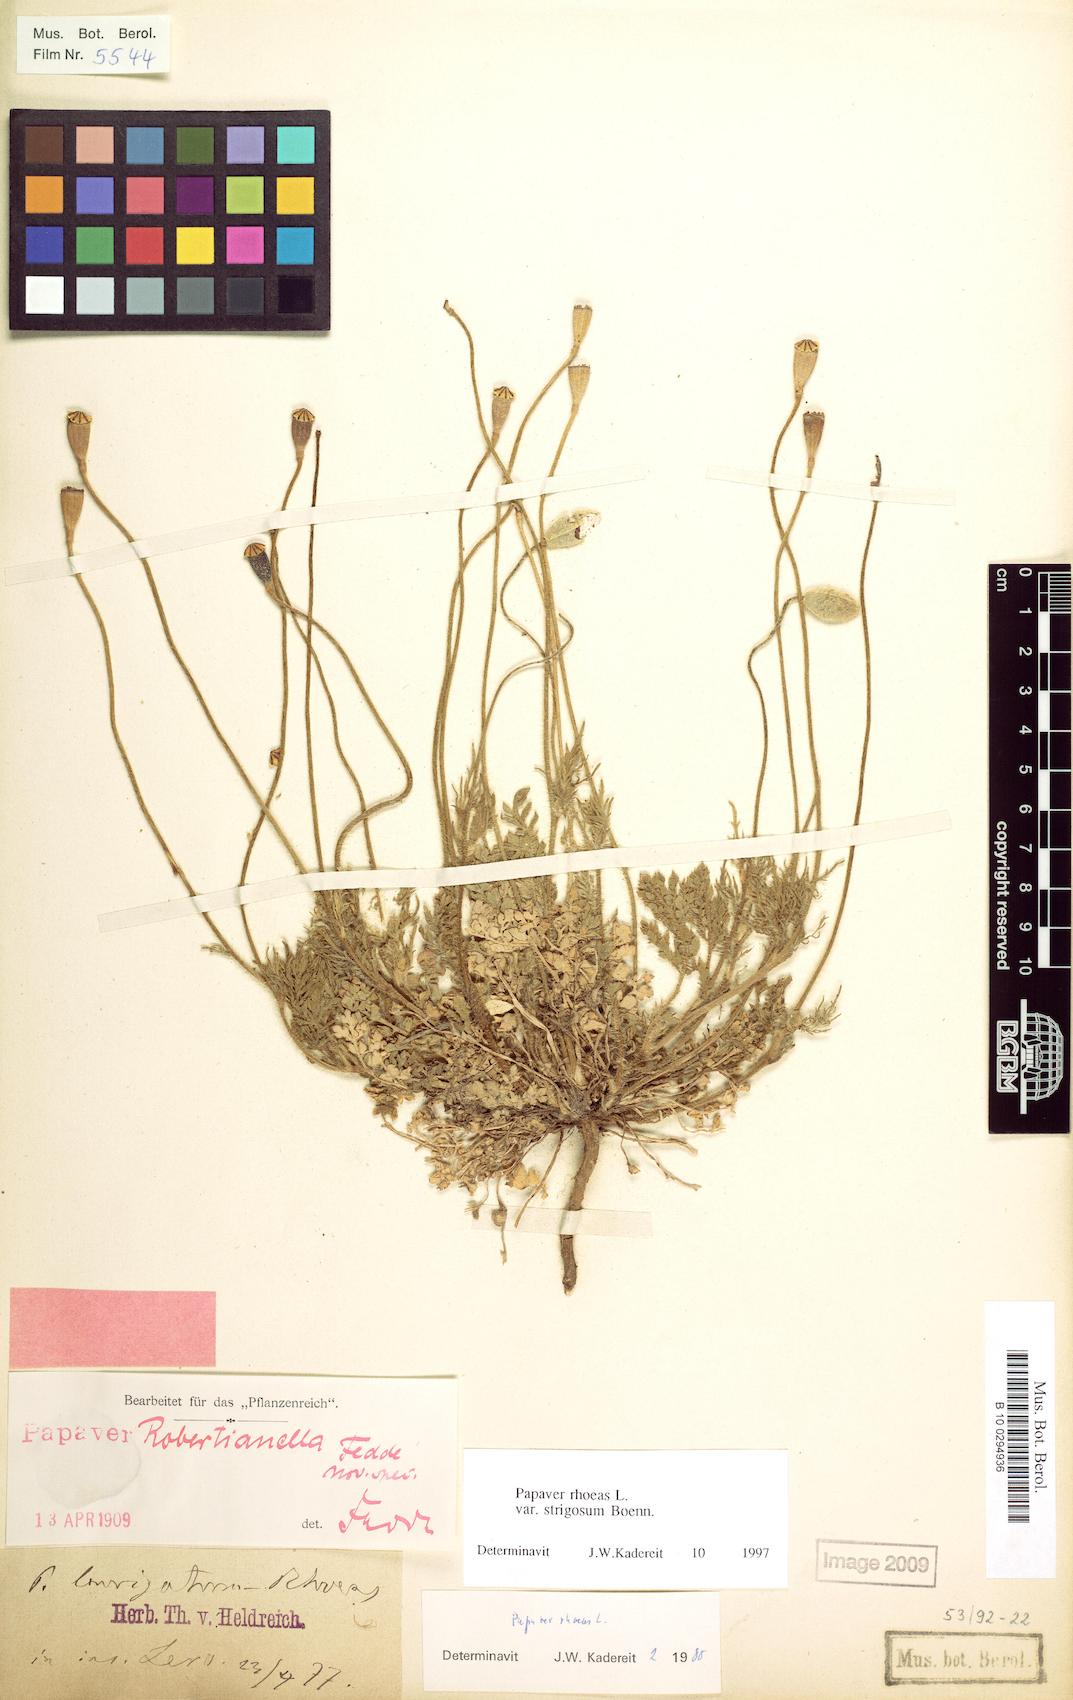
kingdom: Plantae
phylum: Tracheophyta
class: Magnoliopsida
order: Ranunculales
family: Papaveraceae
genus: Papaver
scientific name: Papaver rhoeas
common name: Corn poppy
